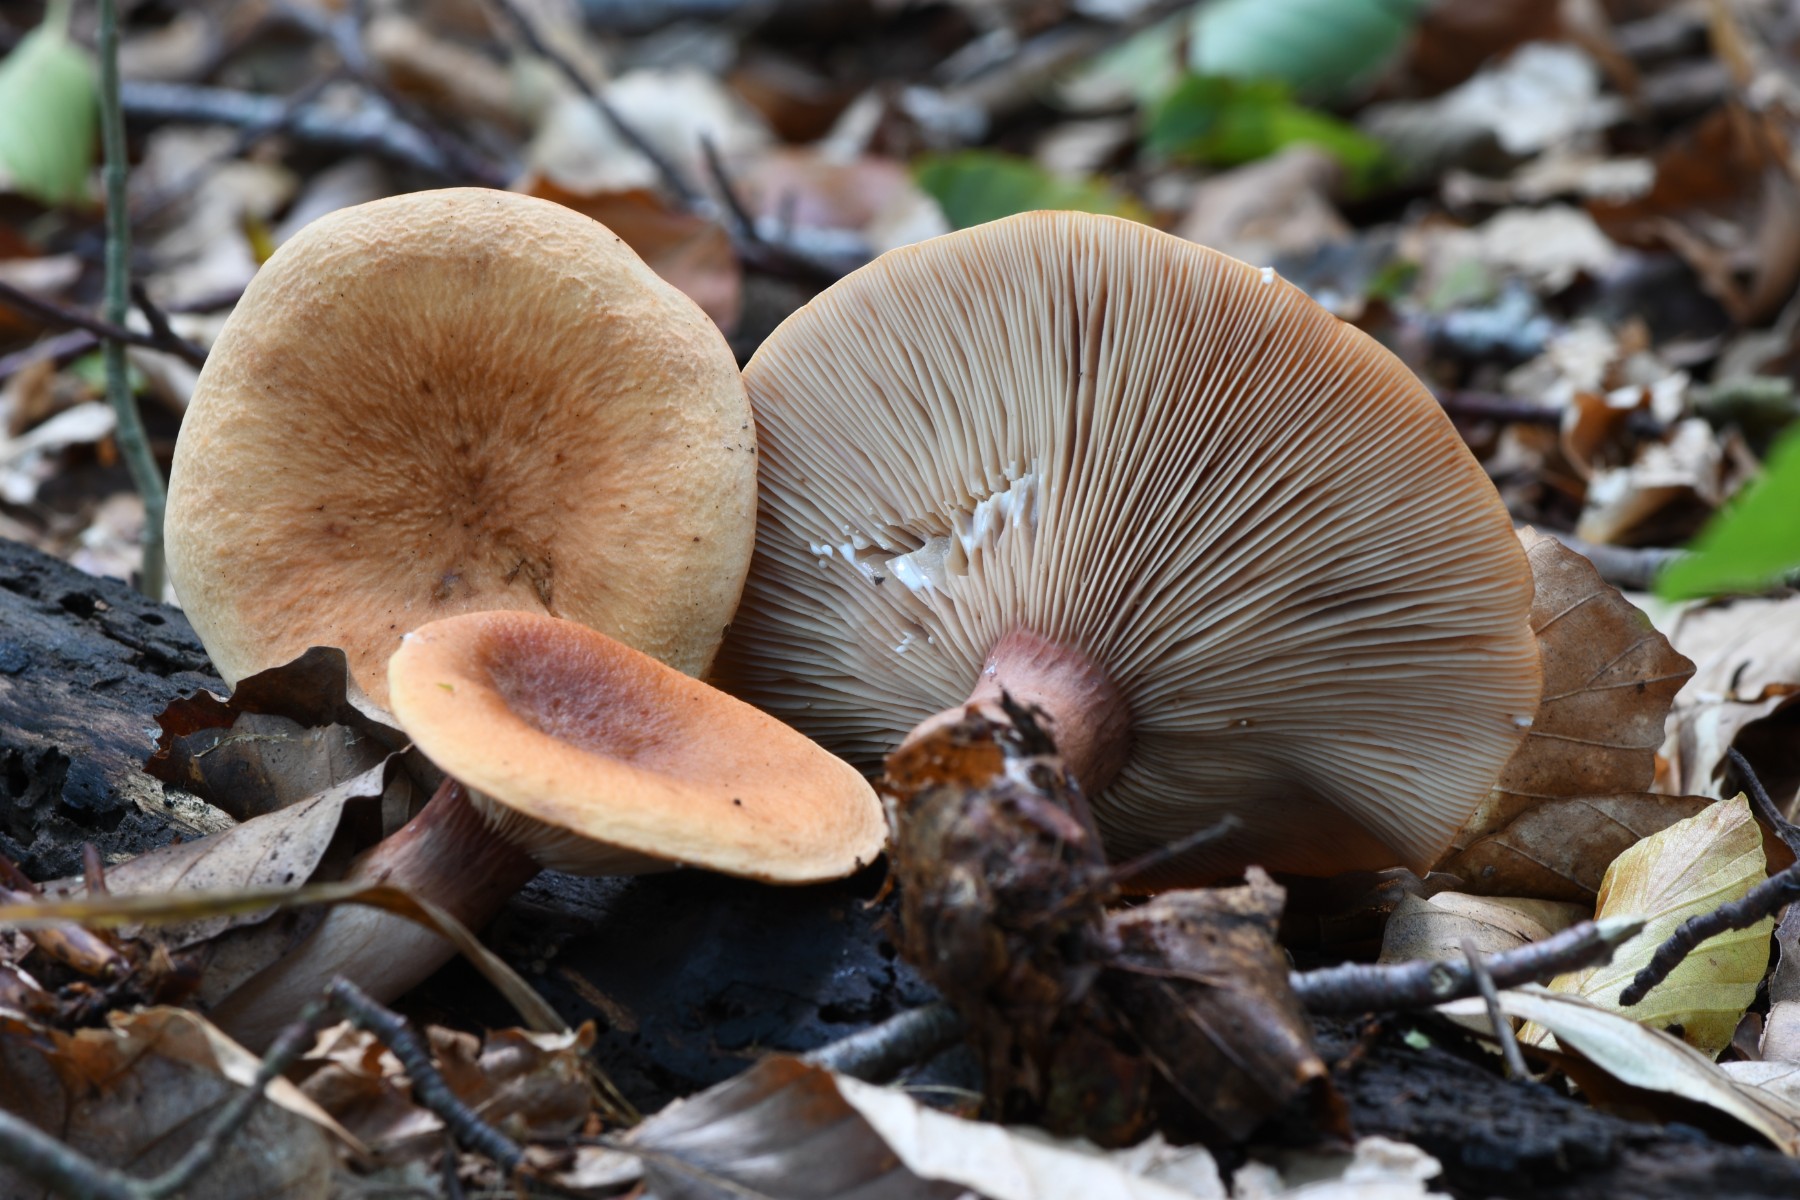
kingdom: Fungi
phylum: Basidiomycota
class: Agaricomycetes
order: Russulales
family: Russulaceae
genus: Lactarius
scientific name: Lactarius rubrocinctus
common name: halsbånd-mælkehat
